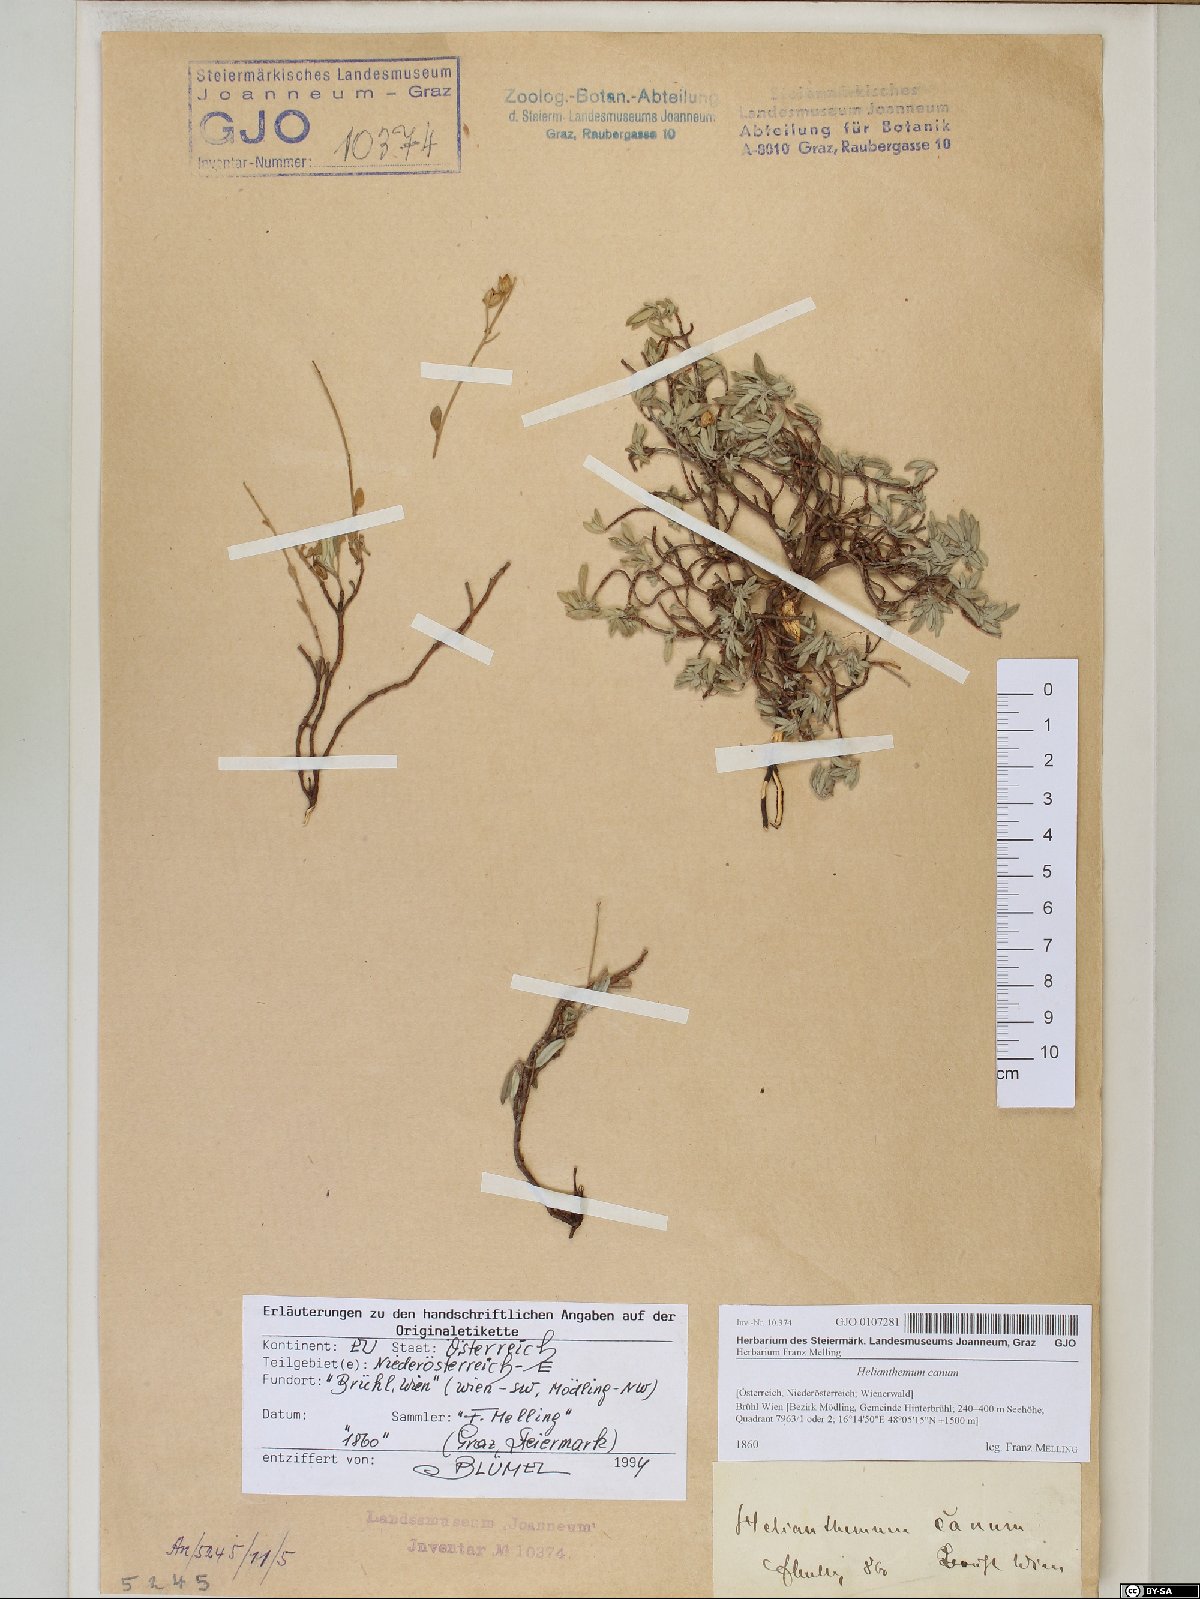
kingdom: Plantae
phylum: Tracheophyta
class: Magnoliopsida
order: Malvales
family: Cistaceae
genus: Helianthemum
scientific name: Helianthemum canum
